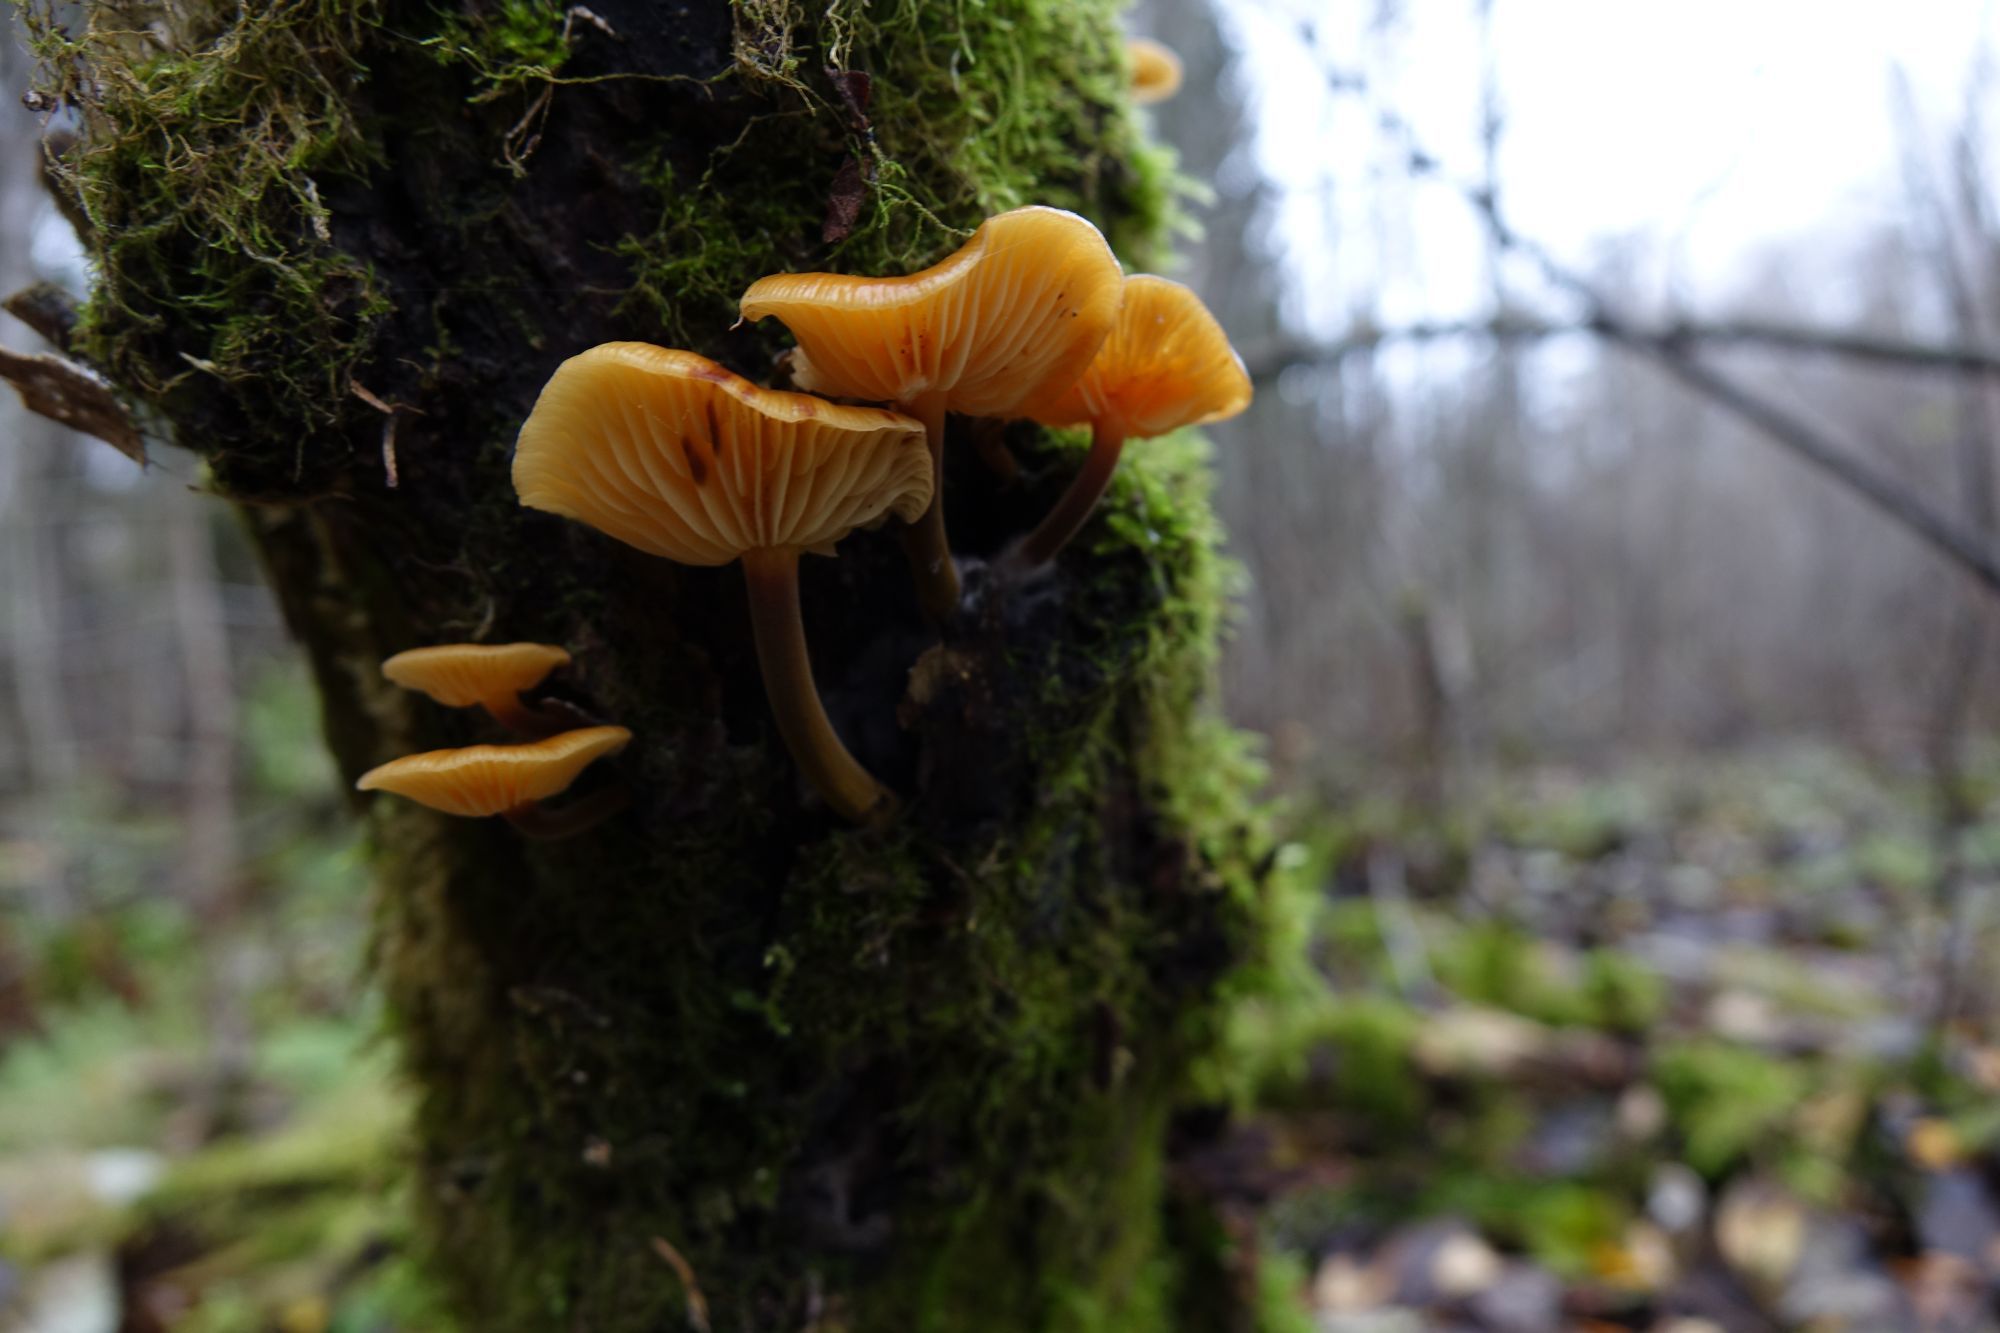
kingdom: Fungi
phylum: Basidiomycota
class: Agaricomycetes
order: Agaricales
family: Physalacriaceae
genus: Flammulina
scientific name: Flammulina velutipes
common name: Velvet shank
